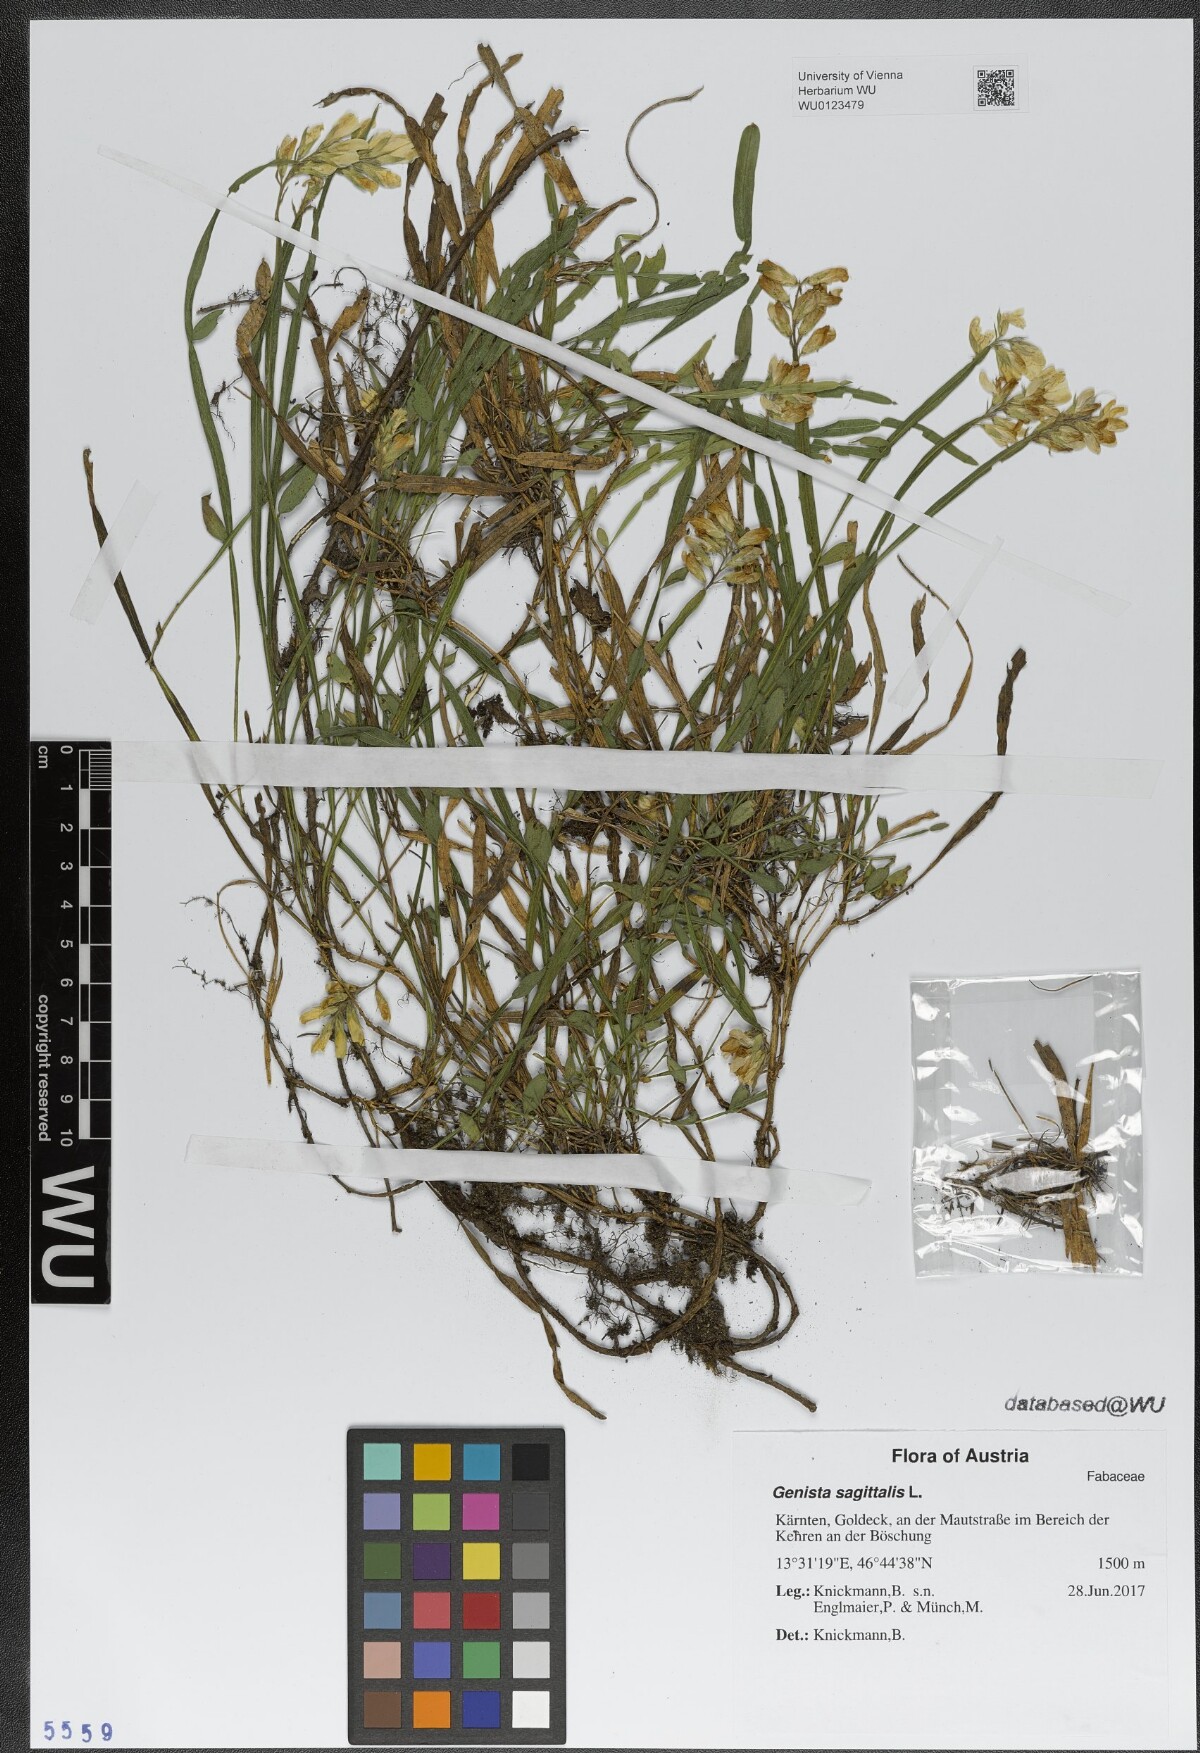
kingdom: Plantae
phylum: Tracheophyta
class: Magnoliopsida
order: Fabales
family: Fabaceae
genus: Genista
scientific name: Genista sagittalis
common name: Winged greenweed
